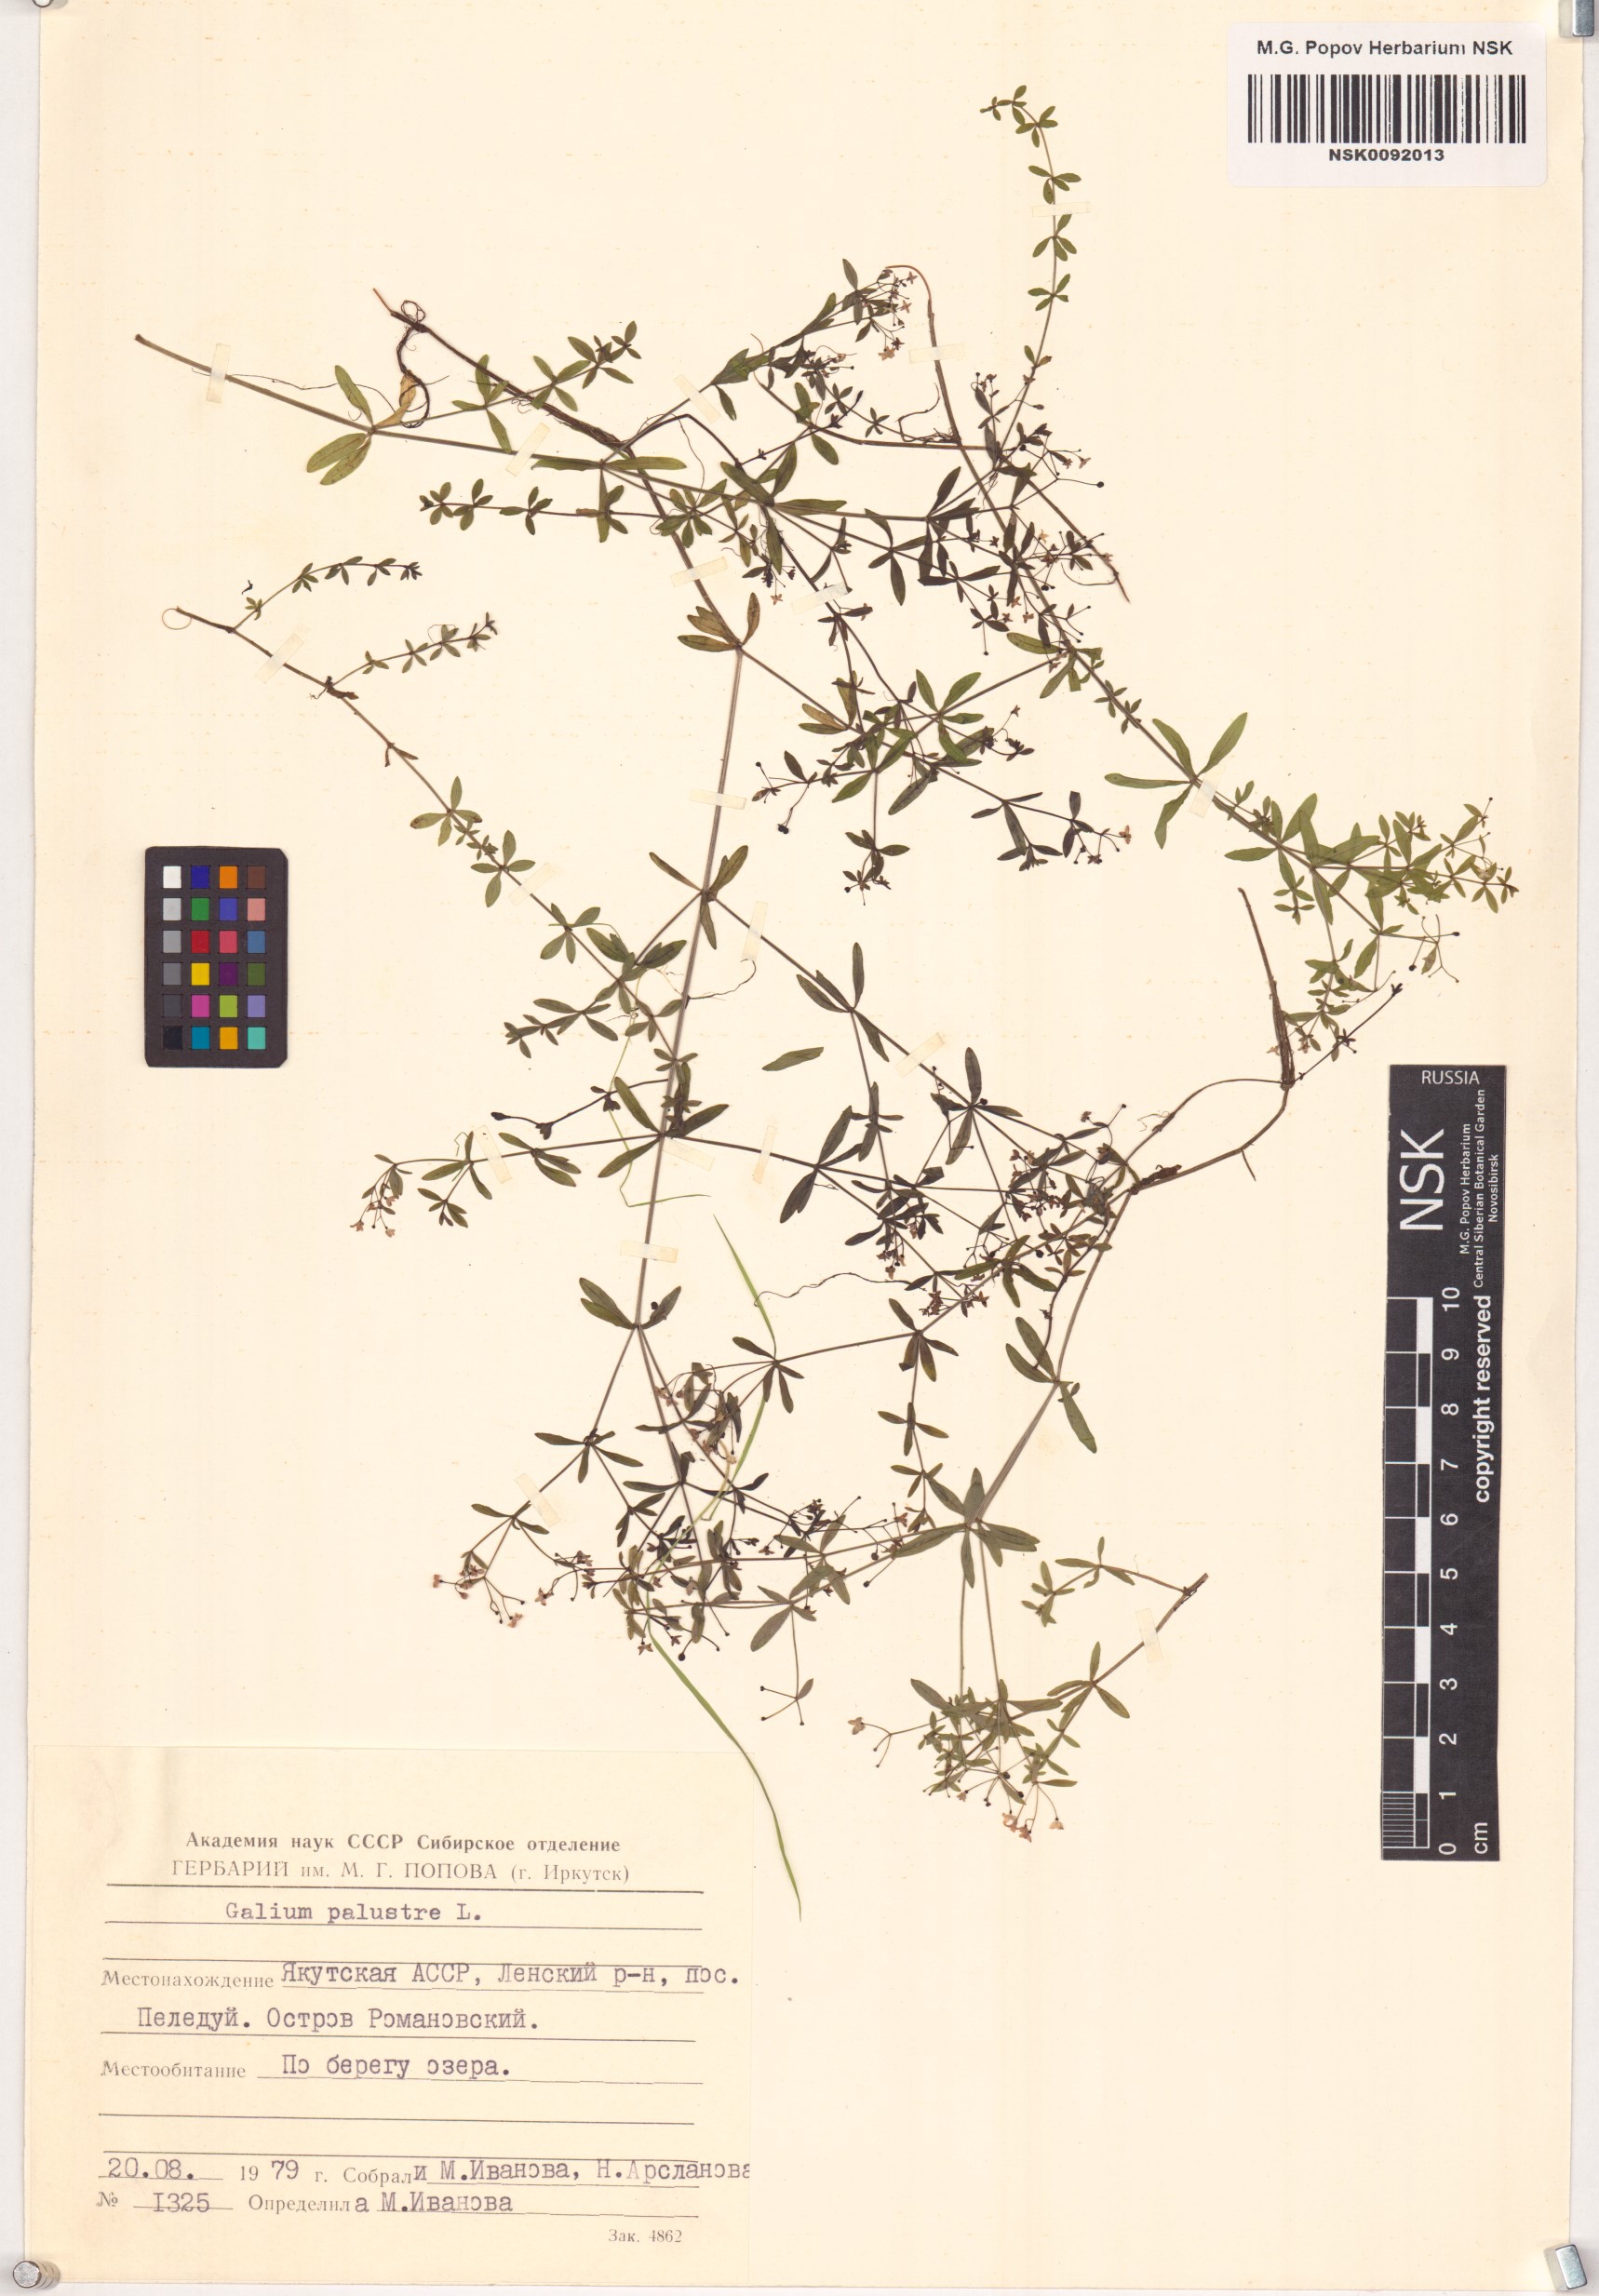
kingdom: Plantae
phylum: Tracheophyta
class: Magnoliopsida
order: Gentianales
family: Rubiaceae
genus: Galium
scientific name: Galium palustre
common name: Common marsh-bedstraw
